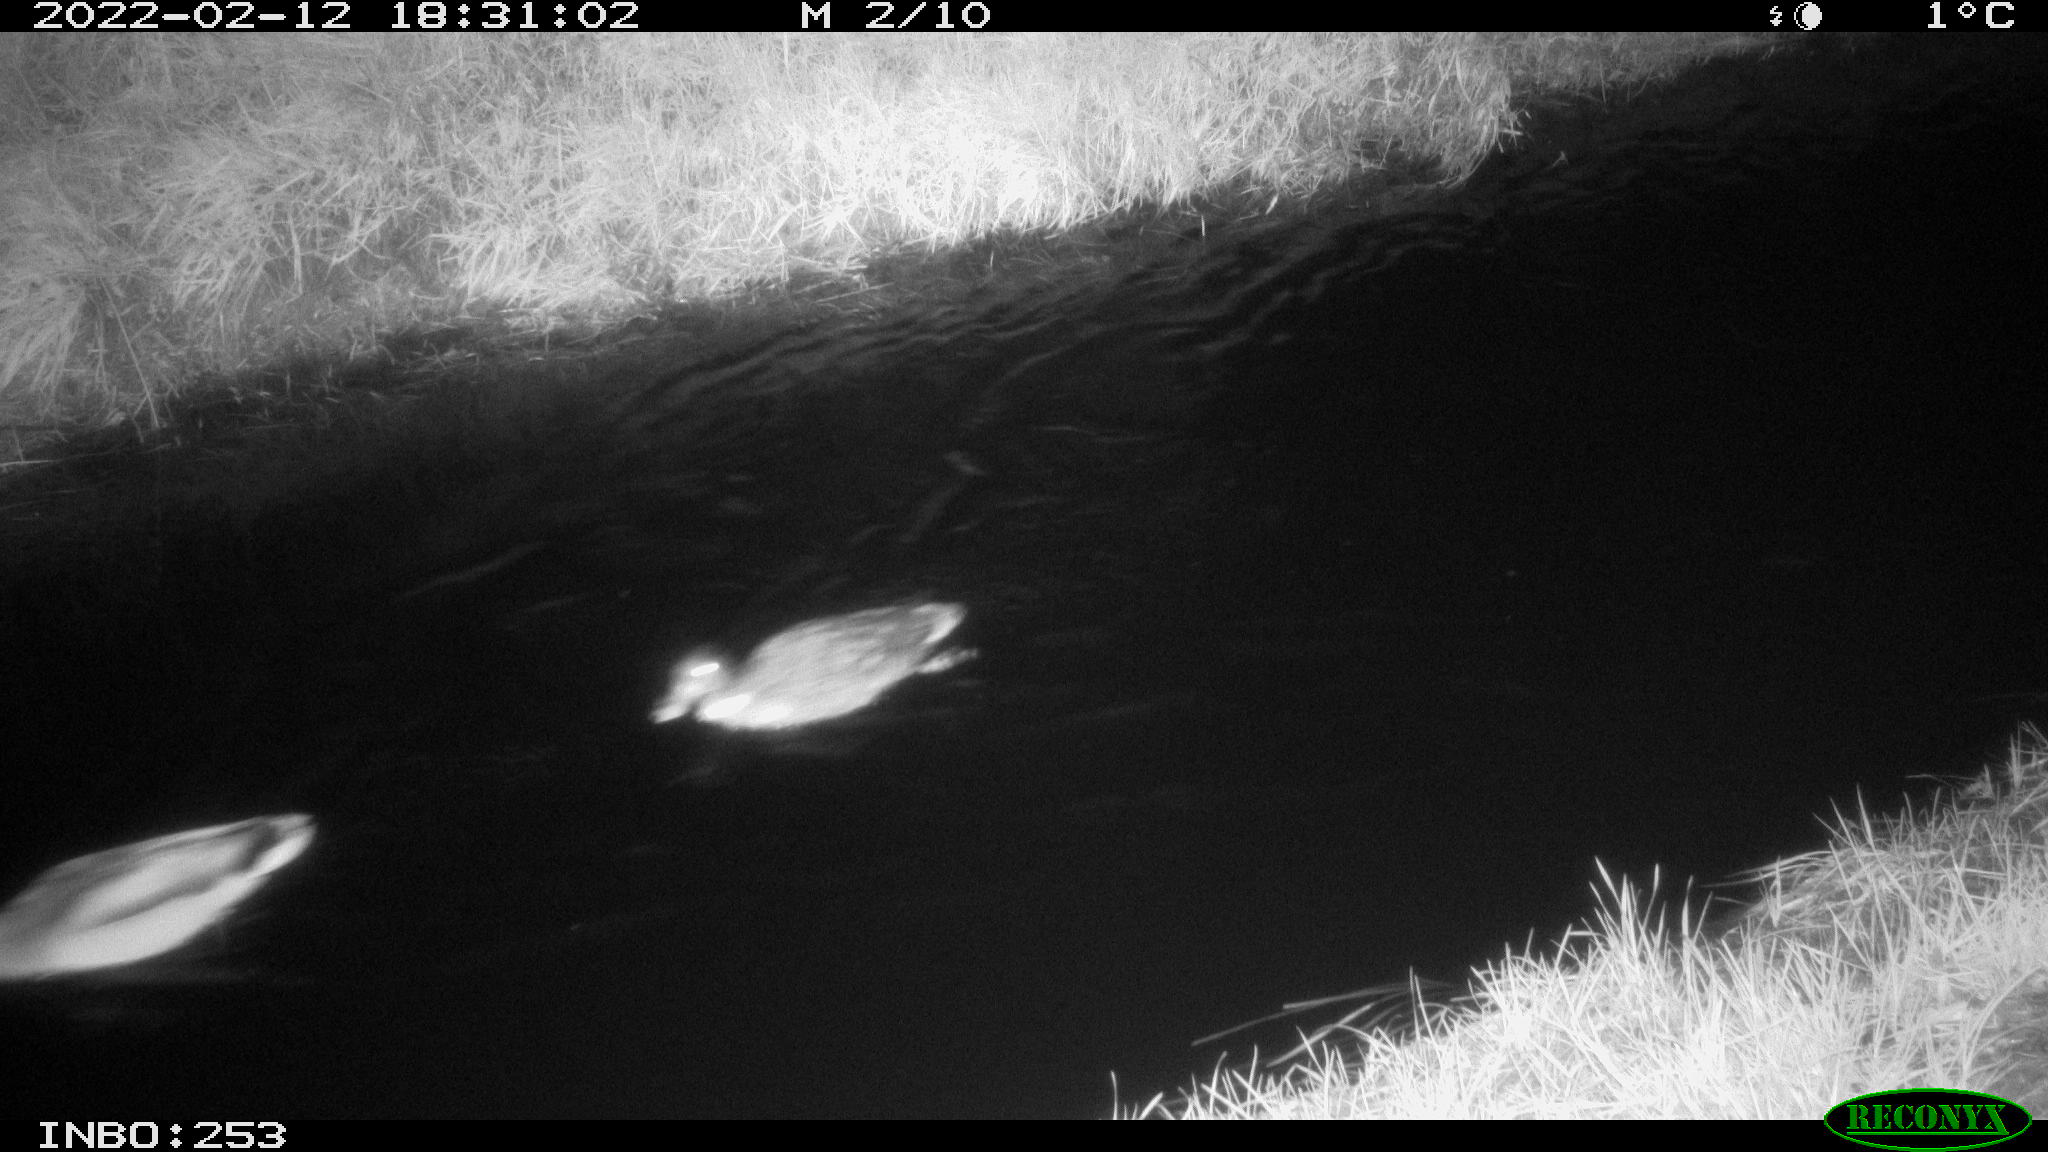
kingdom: Animalia
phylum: Chordata
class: Aves
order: Anseriformes
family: Anatidae
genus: Anas
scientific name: Anas platyrhynchos
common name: Mallard
